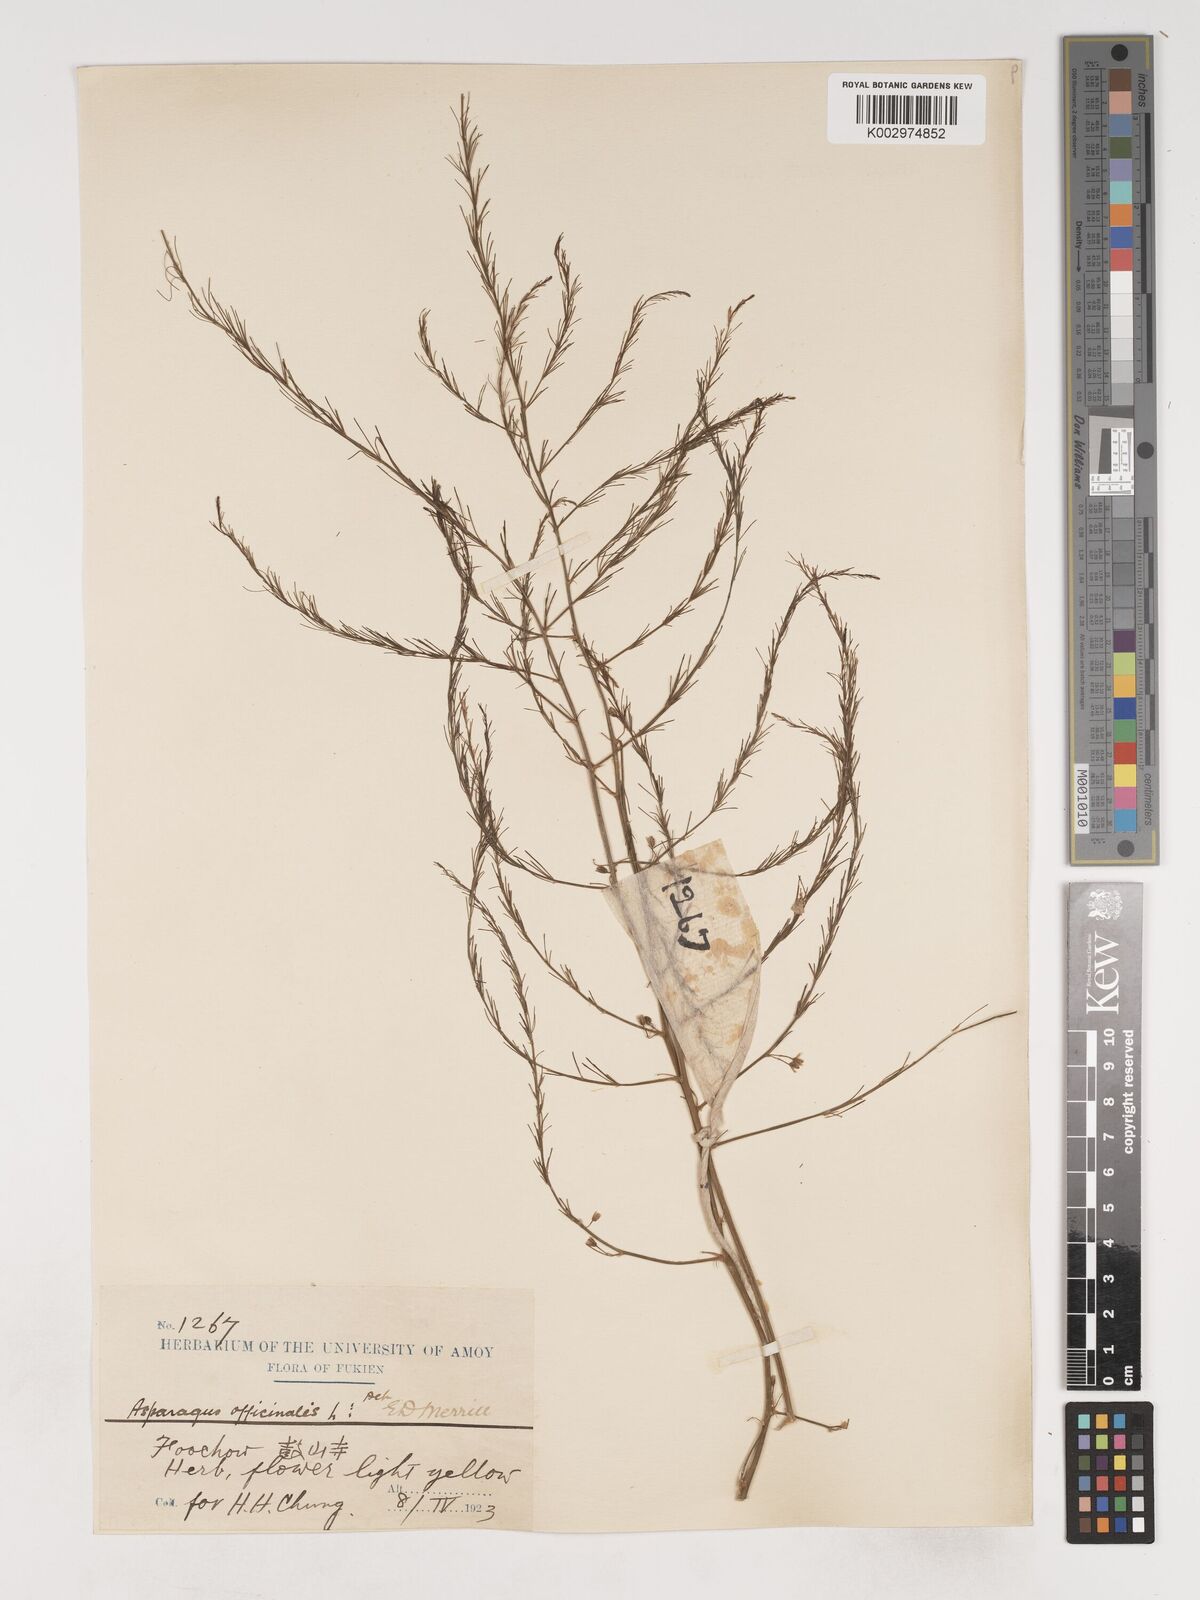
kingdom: Plantae
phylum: Tracheophyta
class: Liliopsida
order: Asparagales
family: Asparagaceae
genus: Asparagus
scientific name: Asparagus officinalis
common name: Garden asparagus
